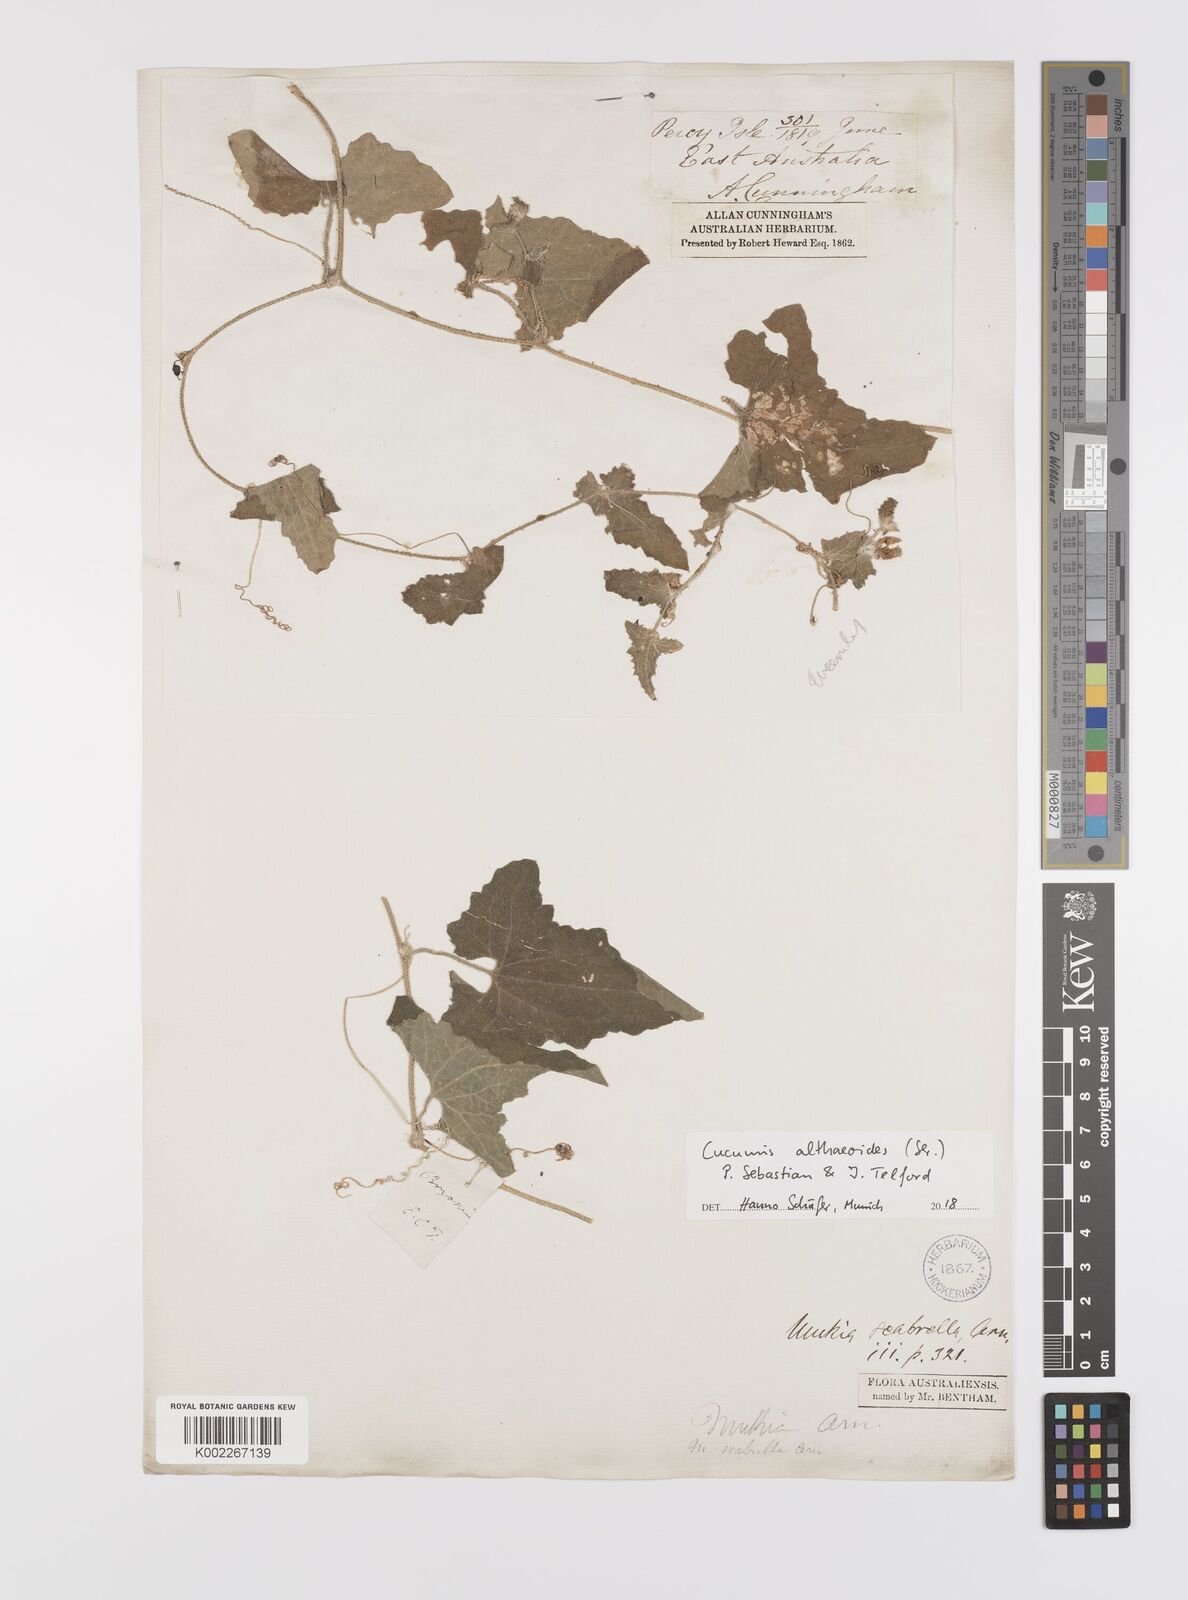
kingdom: Plantae
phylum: Tracheophyta
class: Magnoliopsida
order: Cucurbitales
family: Cucurbitaceae
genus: Cucumis
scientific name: Cucumis althaeoides
